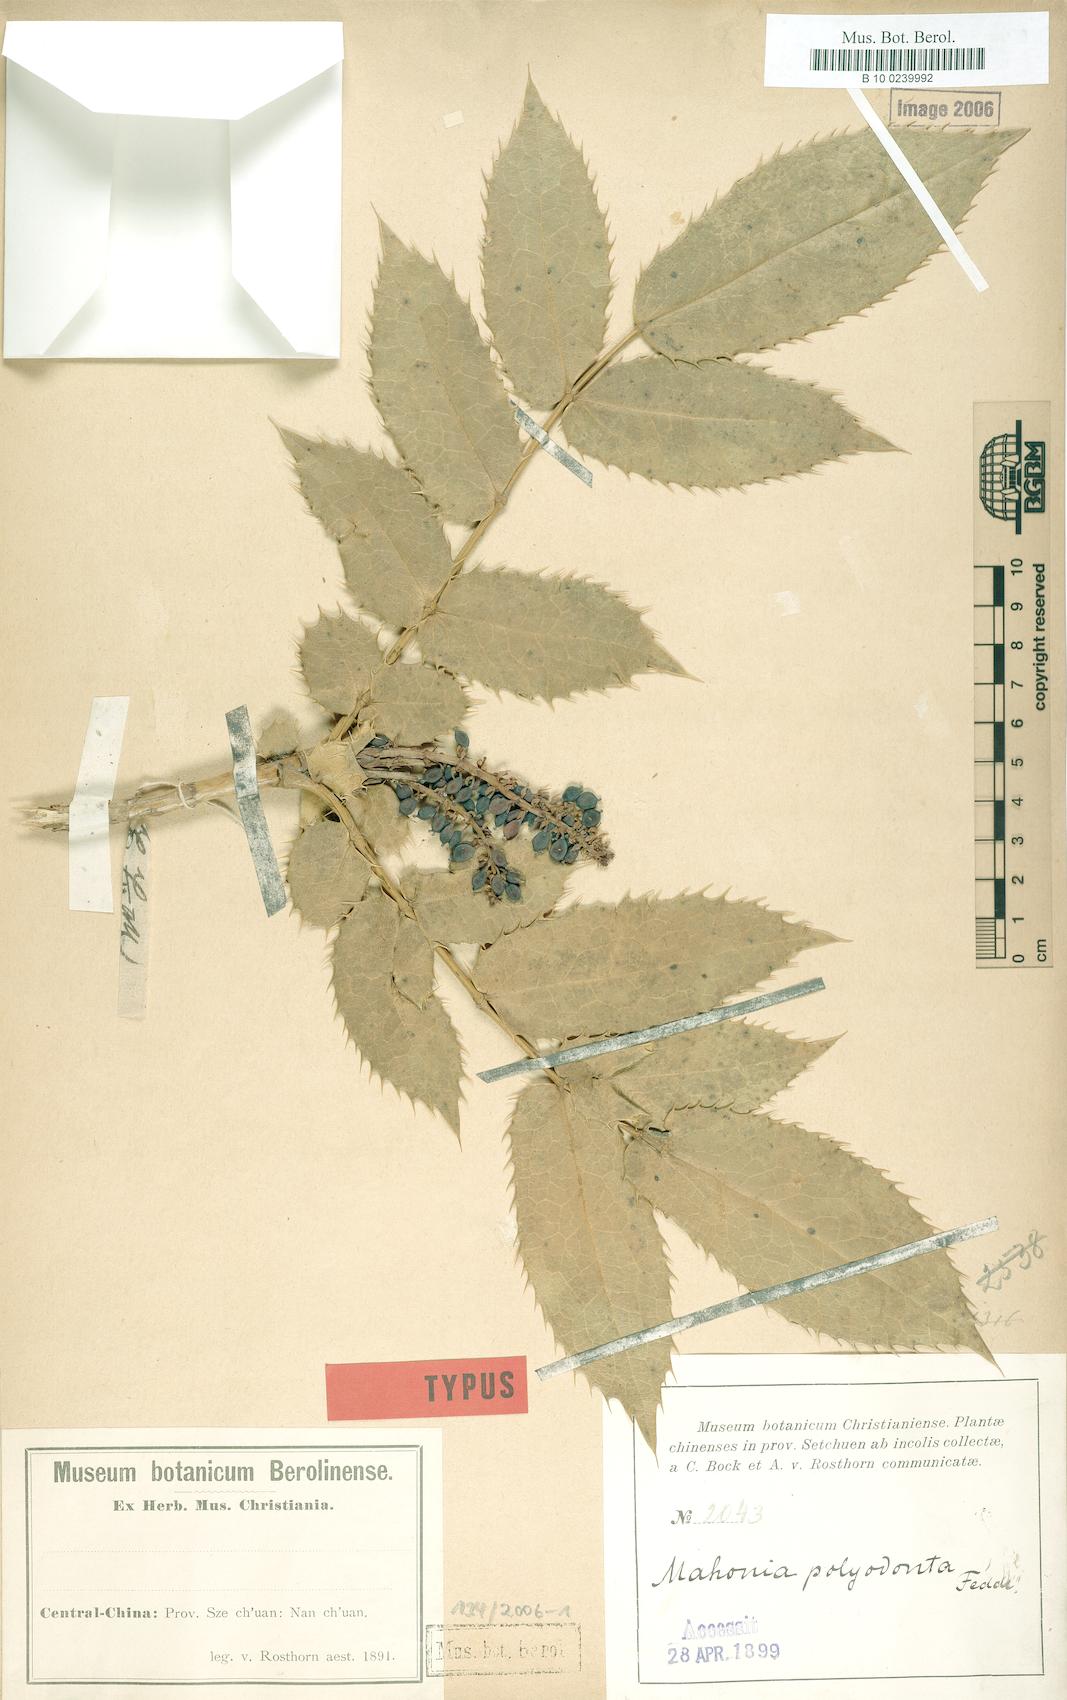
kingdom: Plantae
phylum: Tracheophyta
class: Magnoliopsida
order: Ranunculales
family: Berberidaceae
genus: Mahonia
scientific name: Mahonia polyodonta
